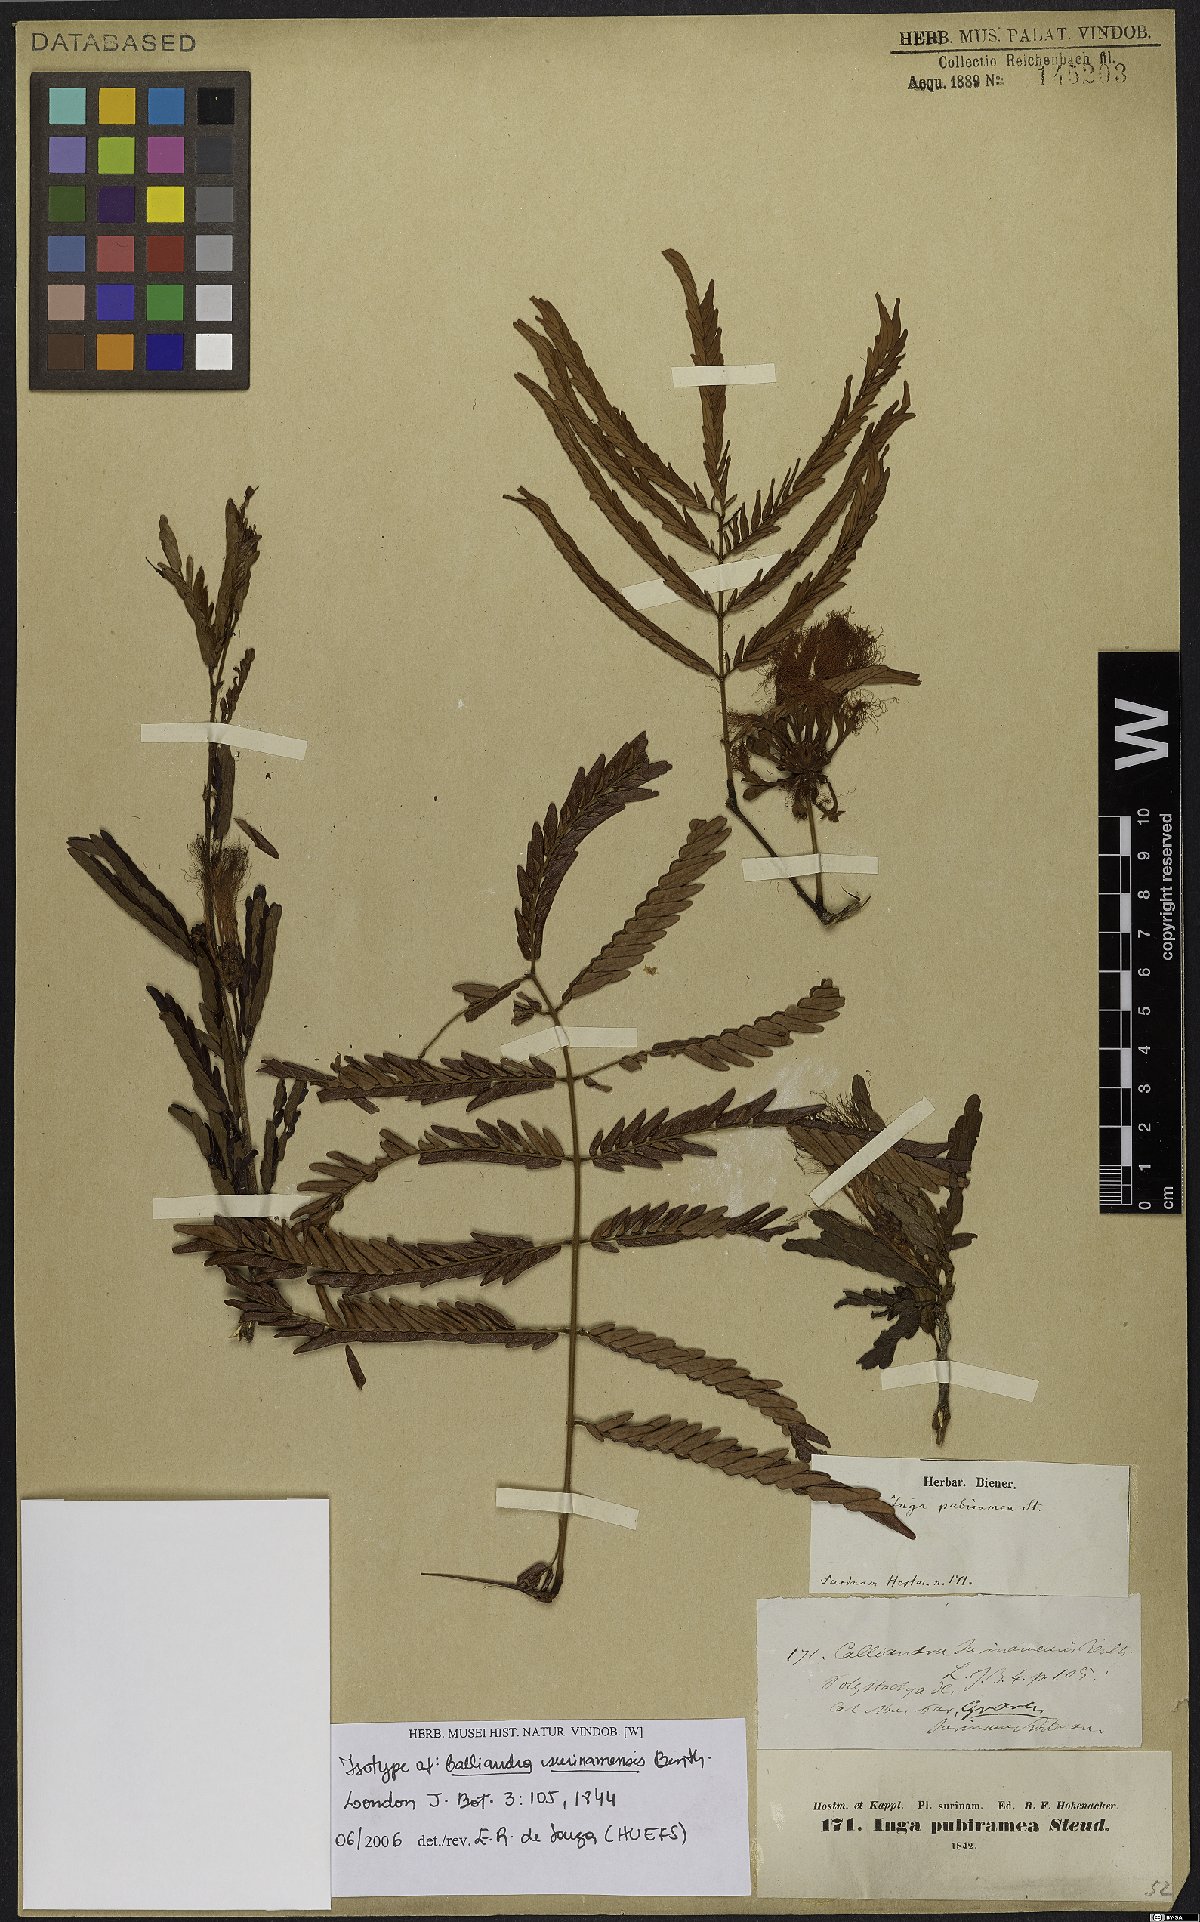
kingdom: Plantae
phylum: Tracheophyta
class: Magnoliopsida
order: Fabales
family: Fabaceae
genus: Calliandra
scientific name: Calliandra surinamensis
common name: Pink powder puff
